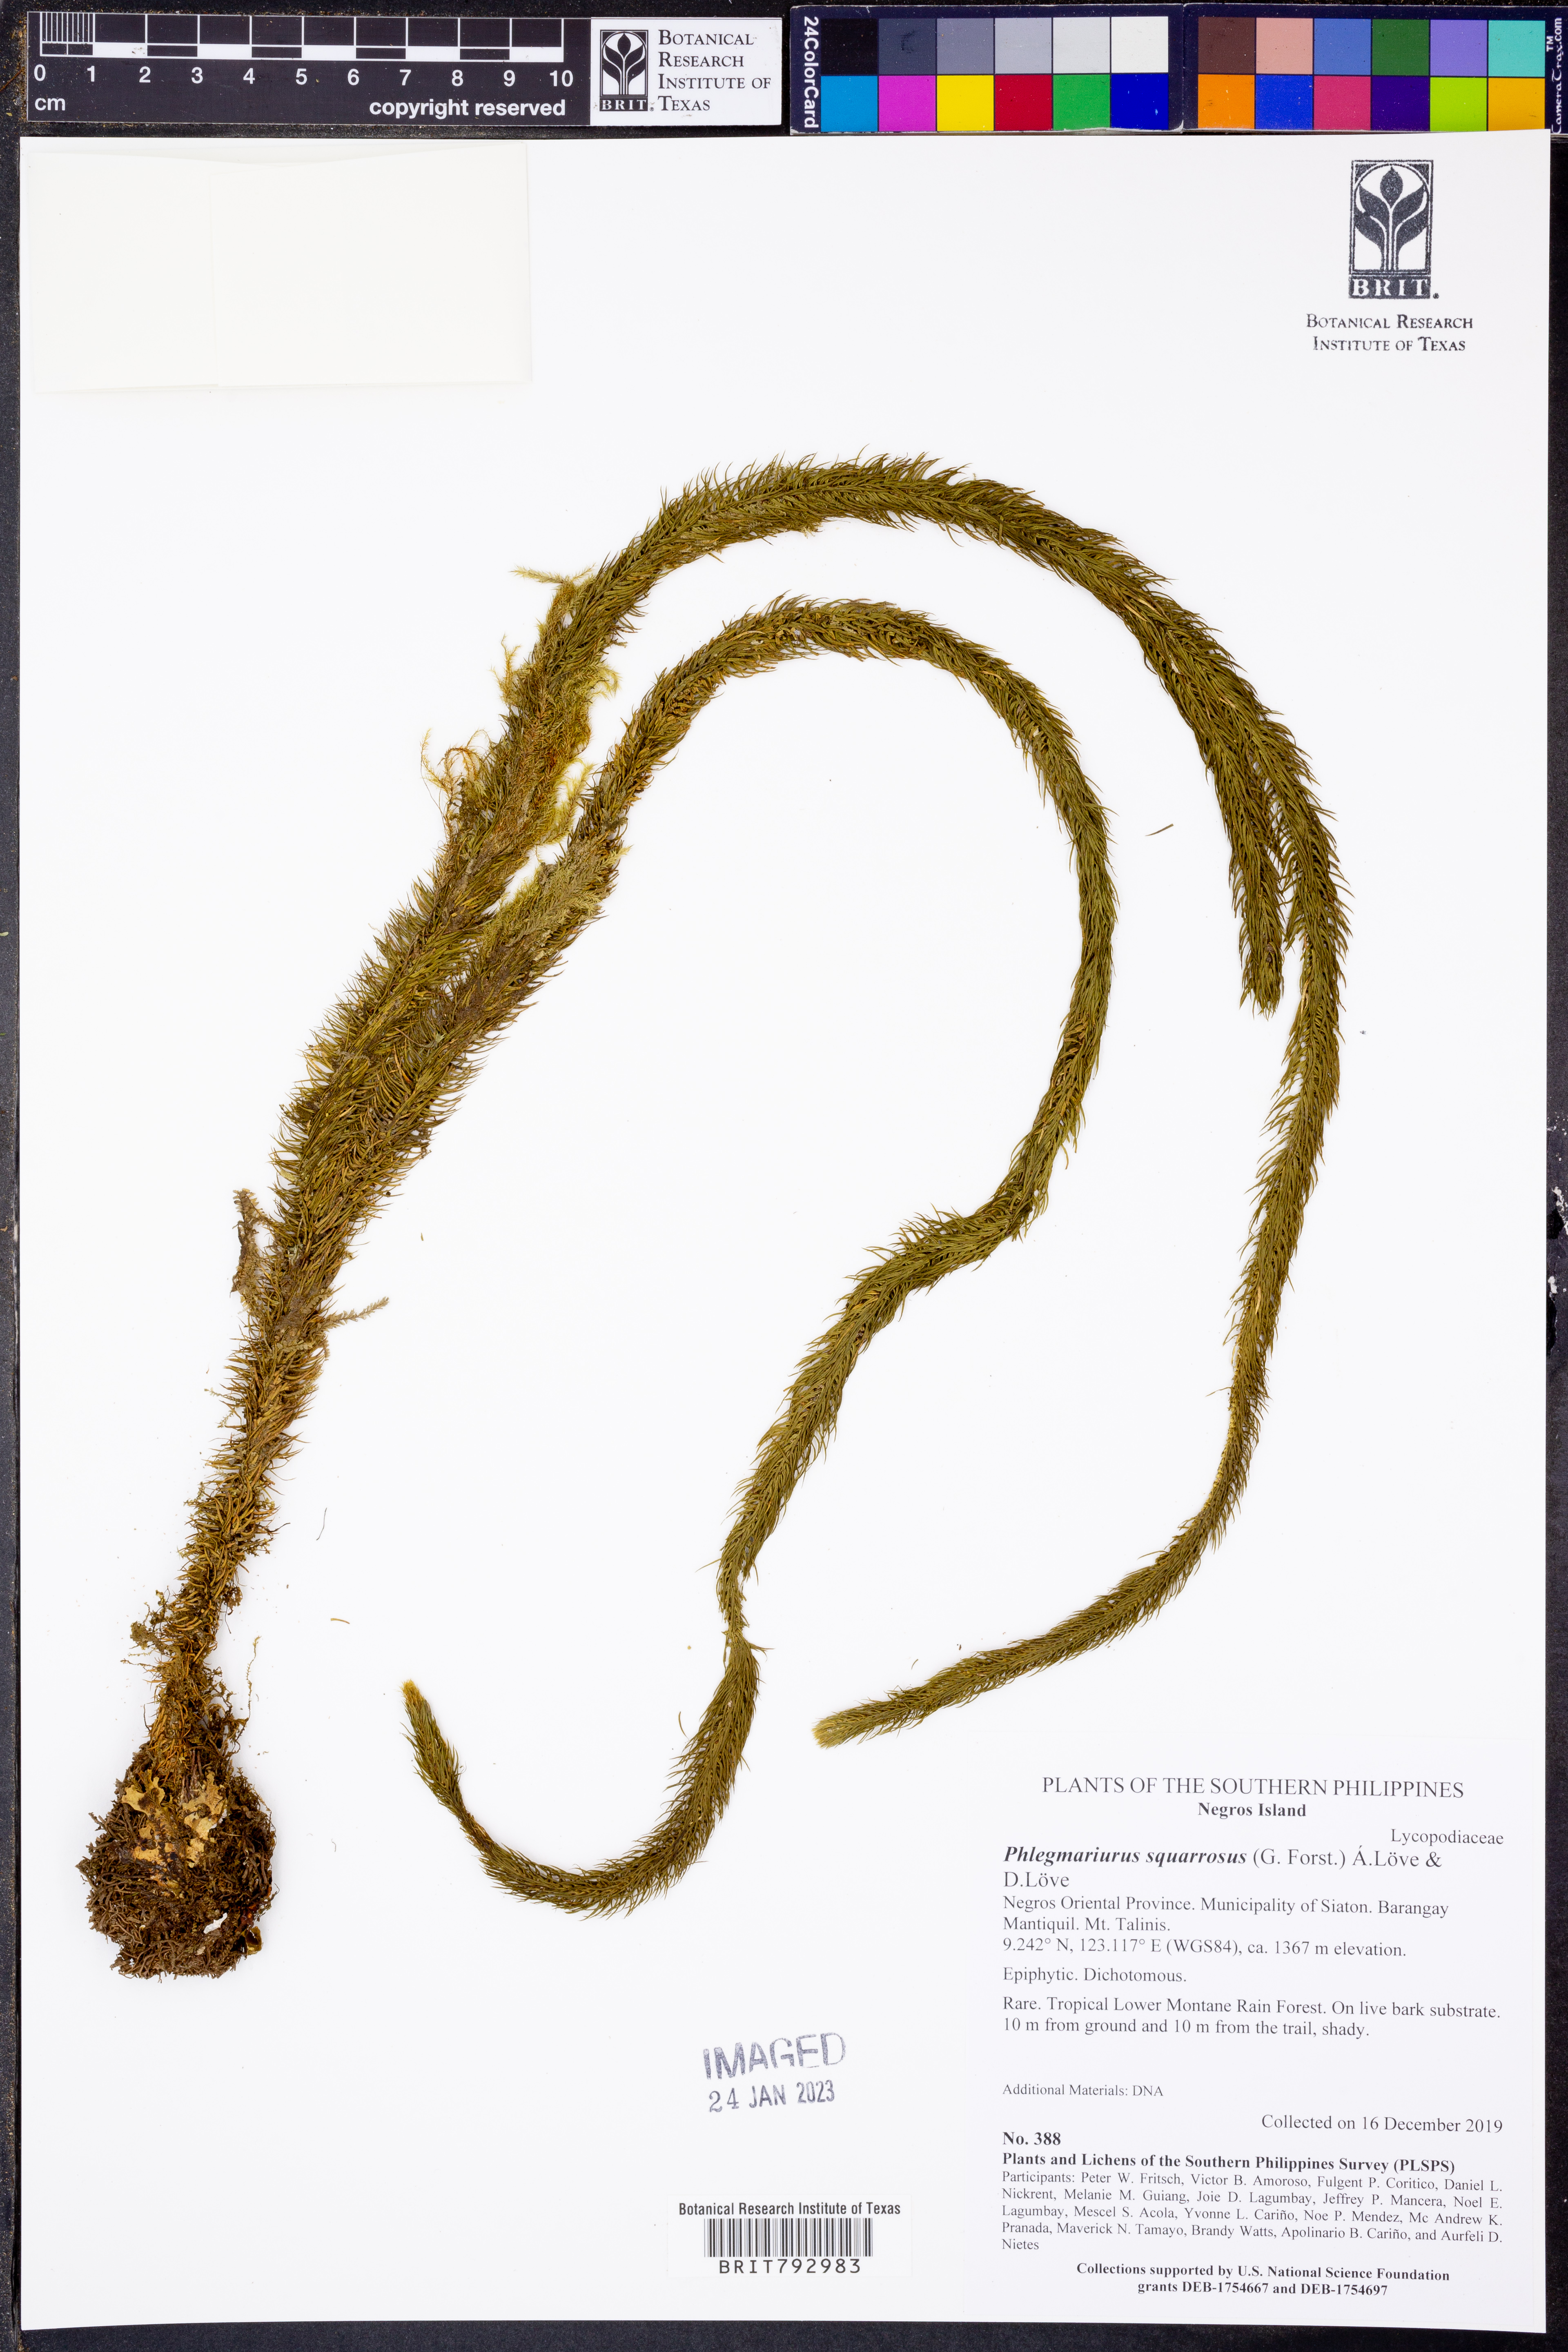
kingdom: Plantae
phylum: Tracheophyta
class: Lycopodiopsida
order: Lycopodiales
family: Lycopodiaceae
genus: Phlegmariurus
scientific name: Phlegmariurus squarrosus
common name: Rock tassel-fern
